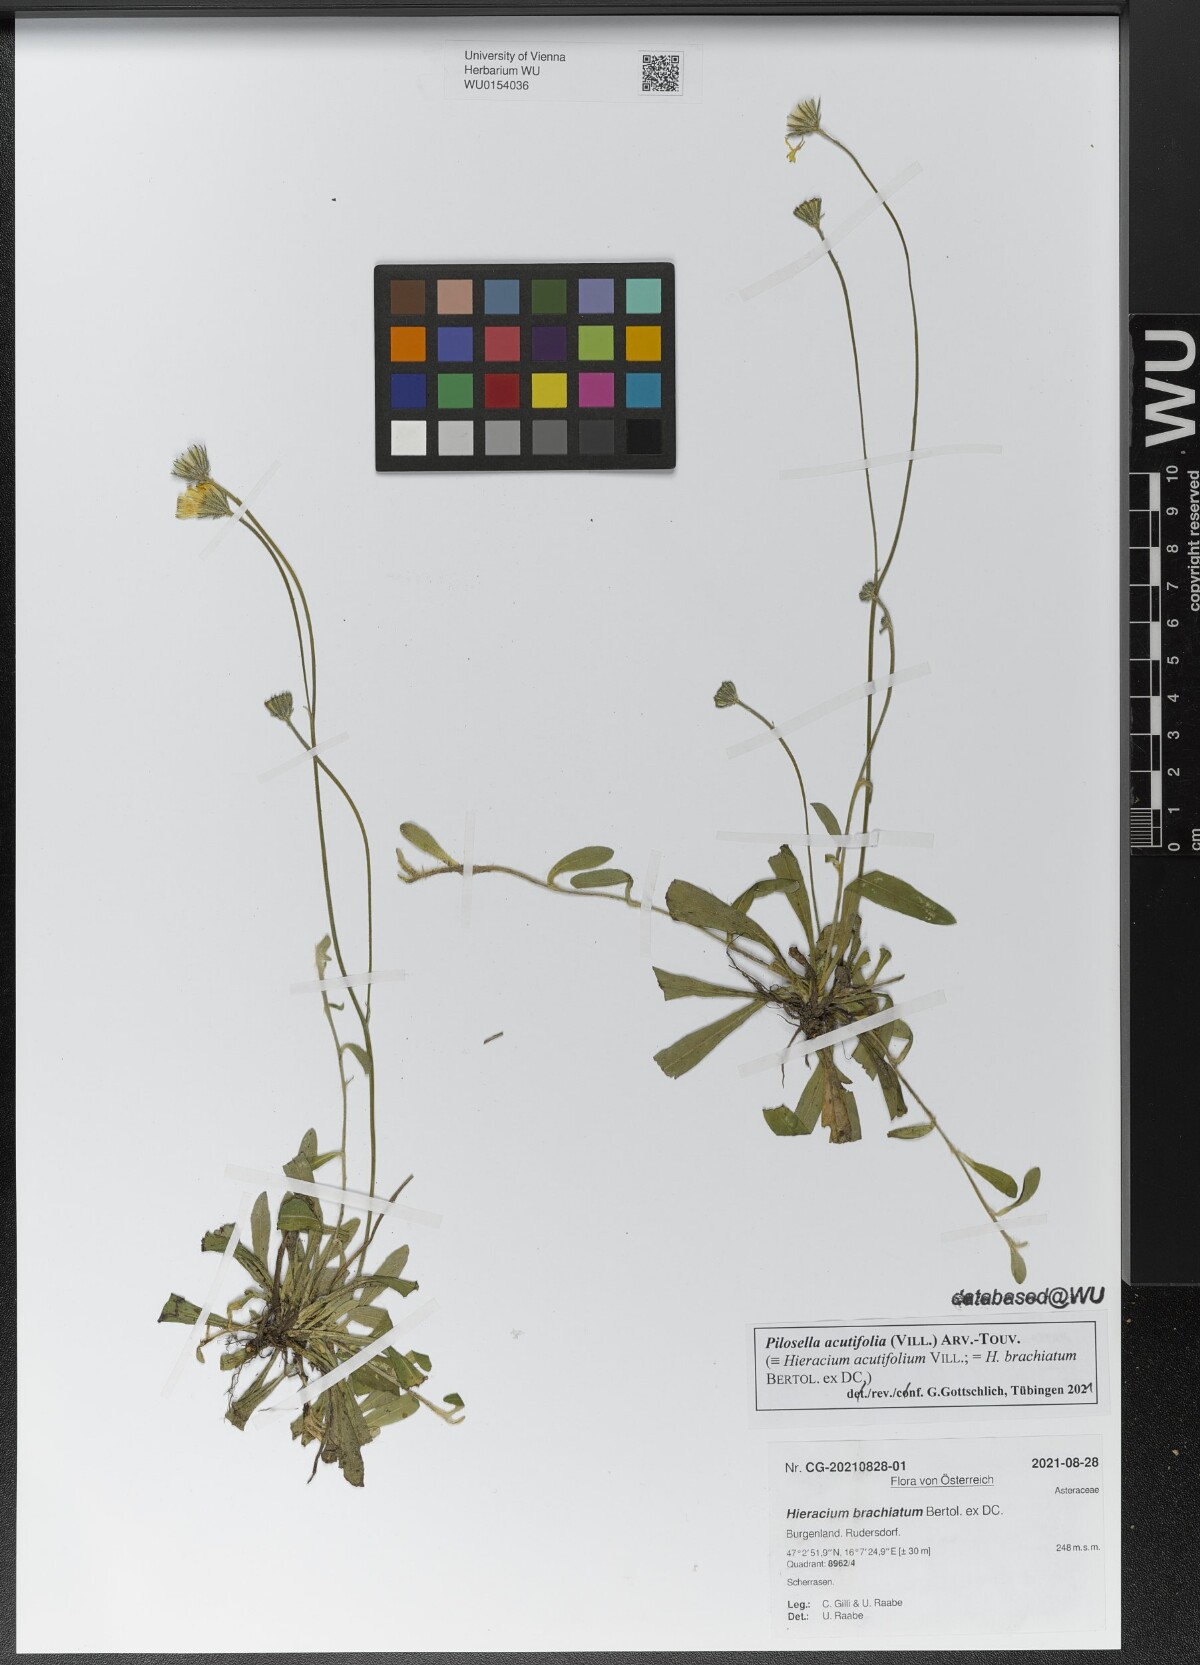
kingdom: Plantae
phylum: Tracheophyta
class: Magnoliopsida
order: Asterales
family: Asteraceae
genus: Pilosella
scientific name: Pilosella acutifolia
